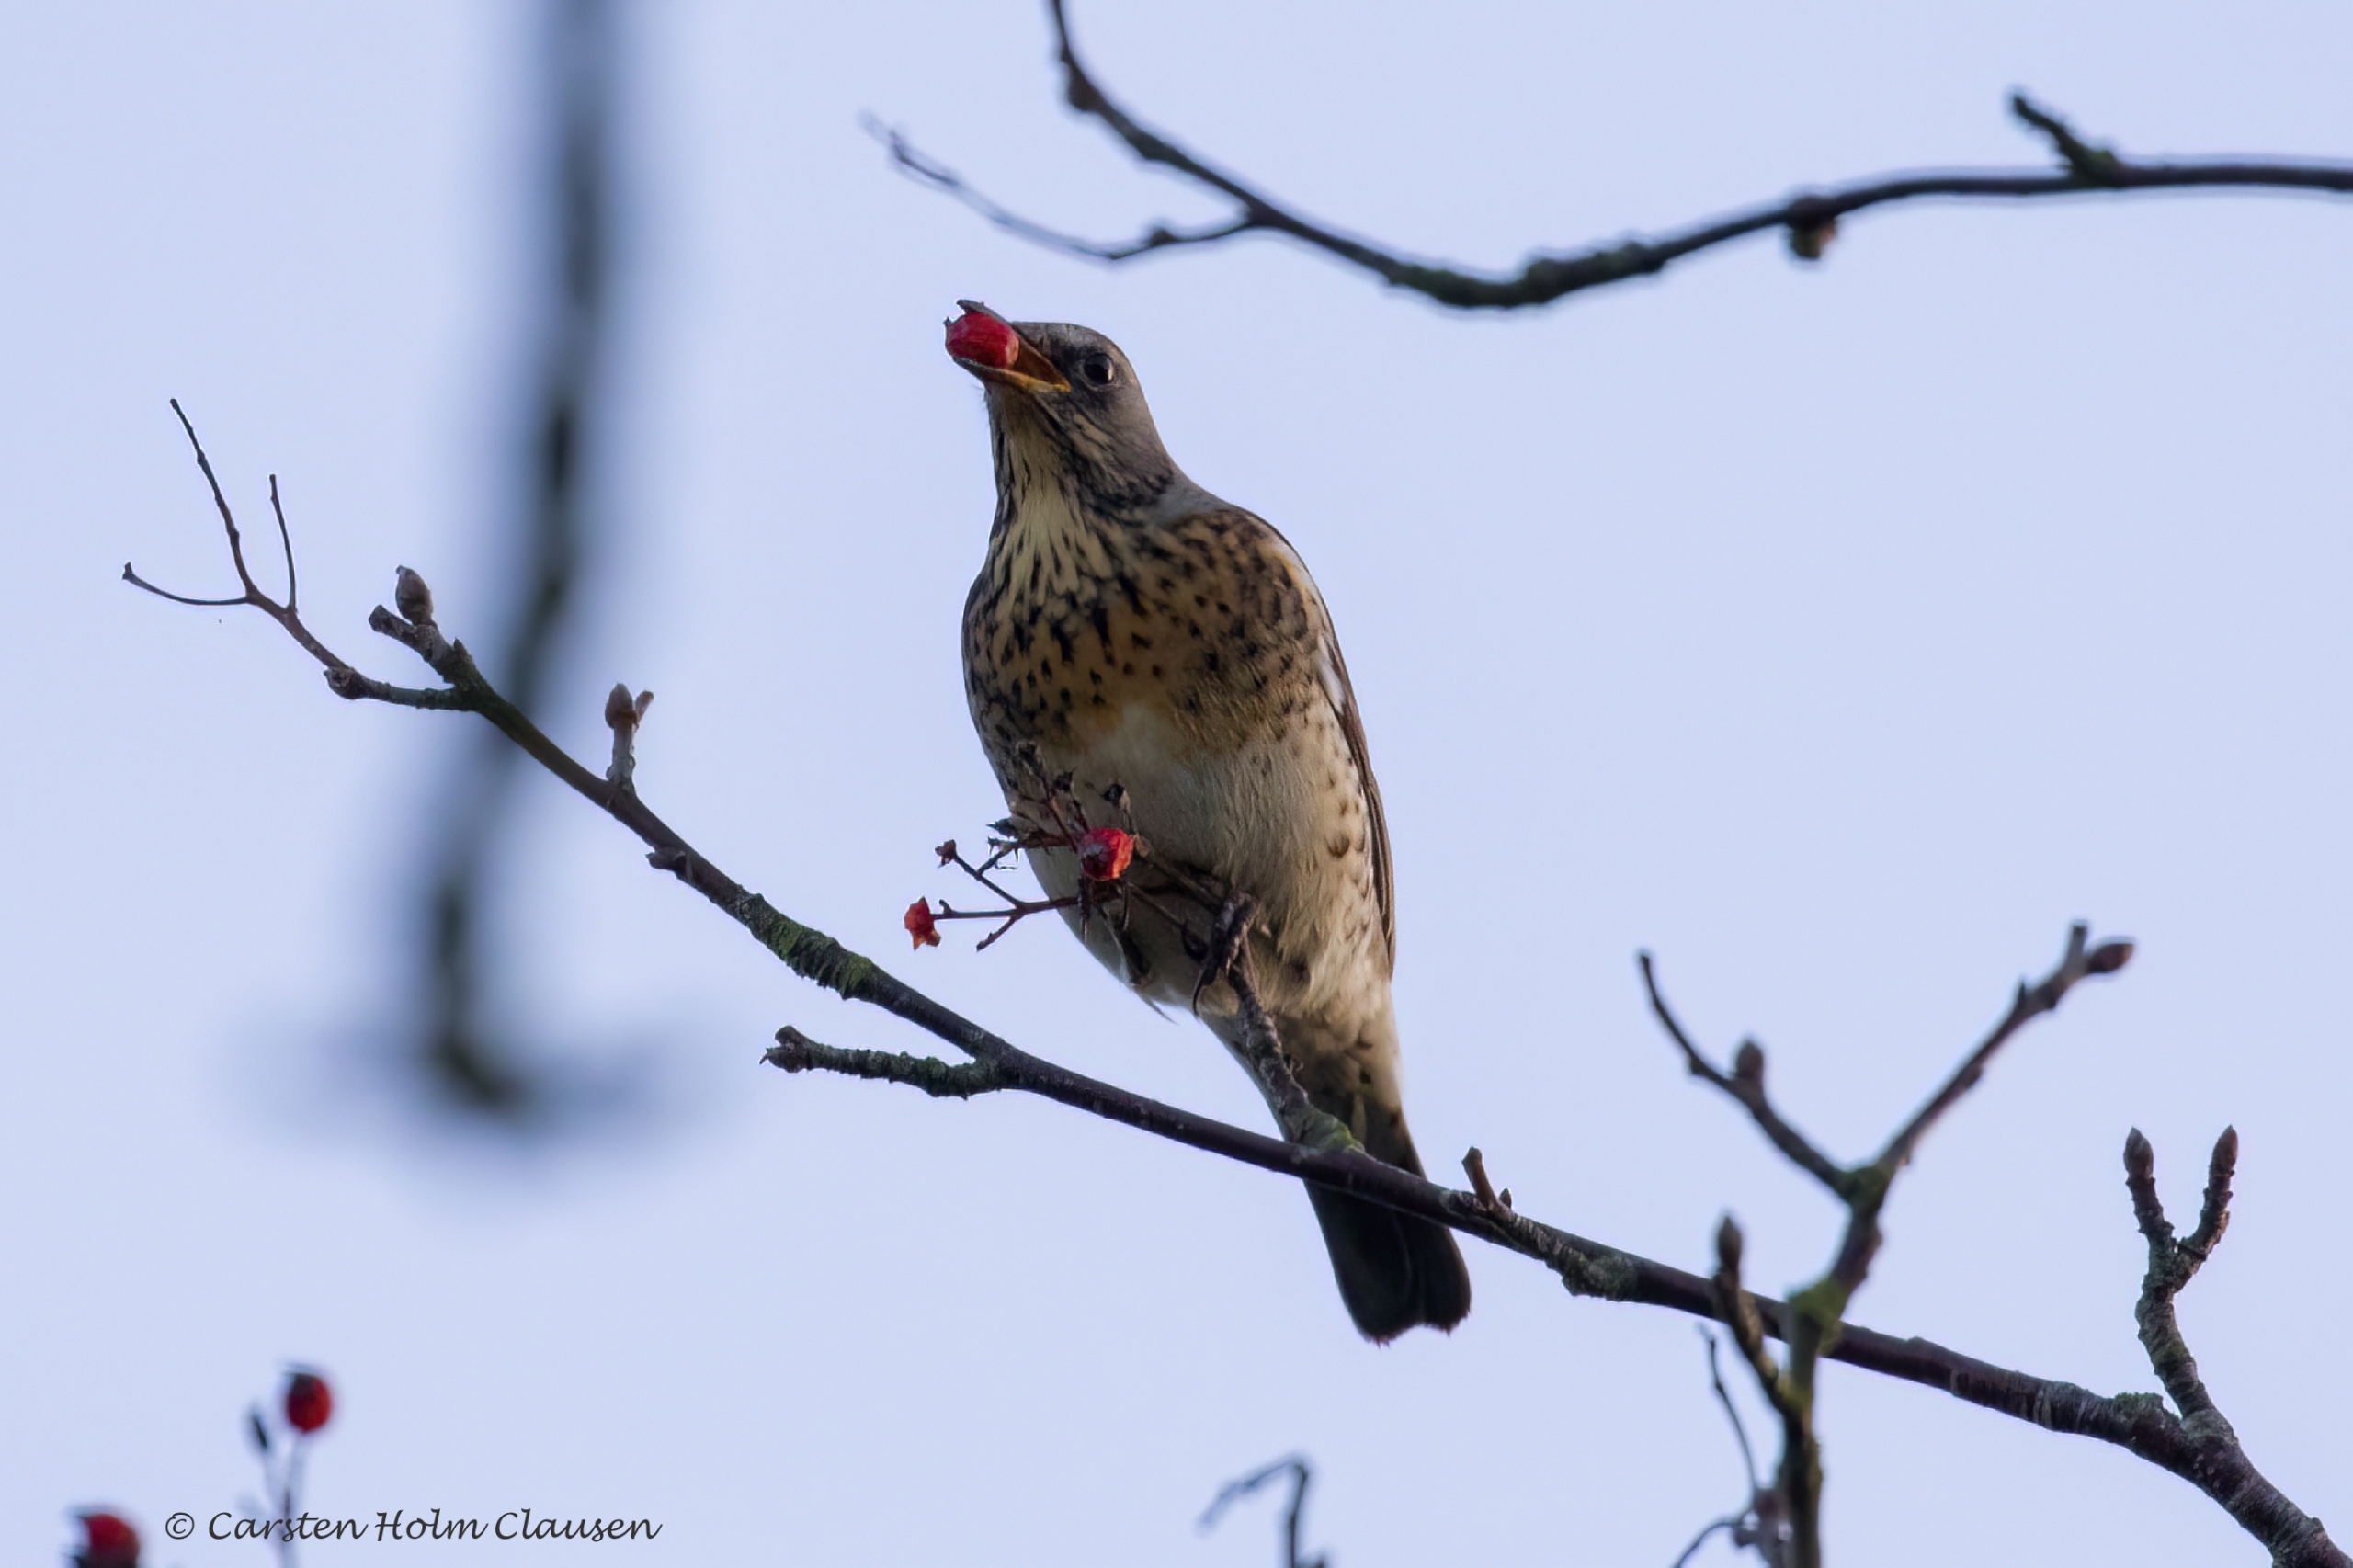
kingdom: Animalia
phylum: Chordata
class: Aves
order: Passeriformes
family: Turdidae
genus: Turdus
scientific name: Turdus pilaris
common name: Sjagger
